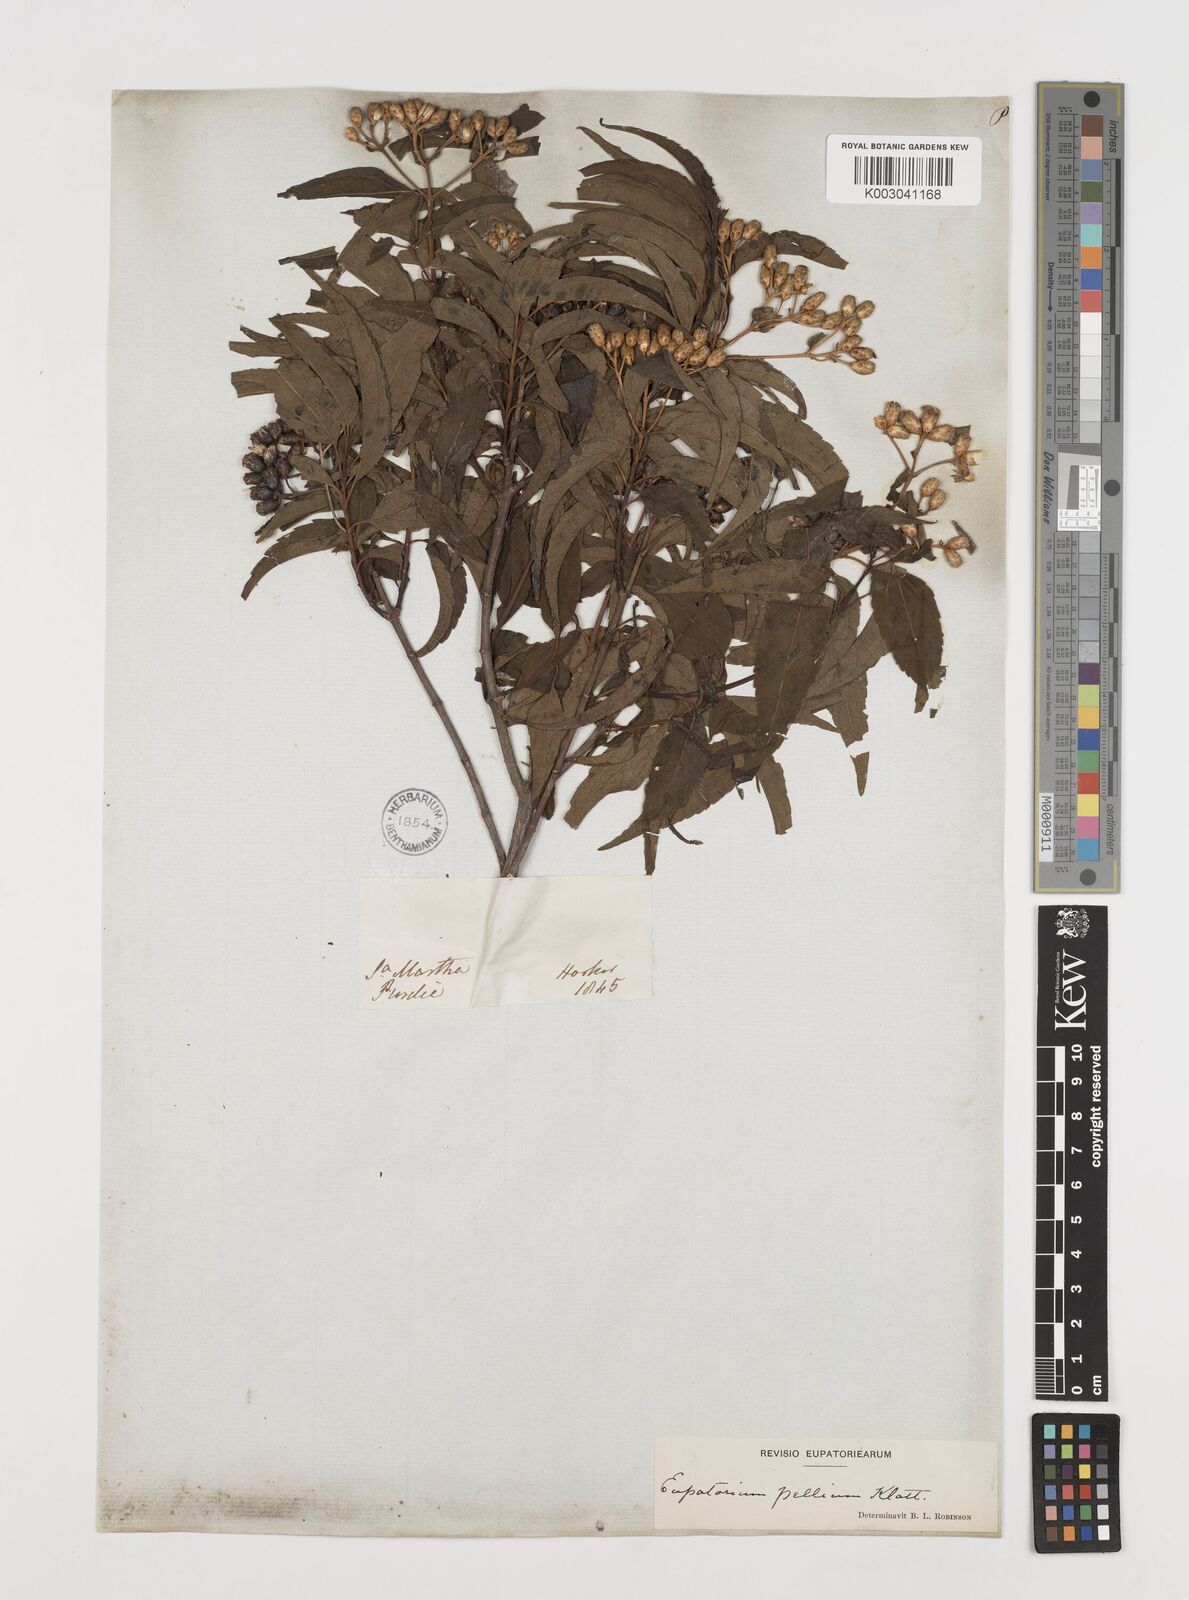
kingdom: Plantae
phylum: Tracheophyta
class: Magnoliopsida
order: Asterales
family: Asteraceae
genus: Chromolaena
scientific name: Chromolaena pellia
